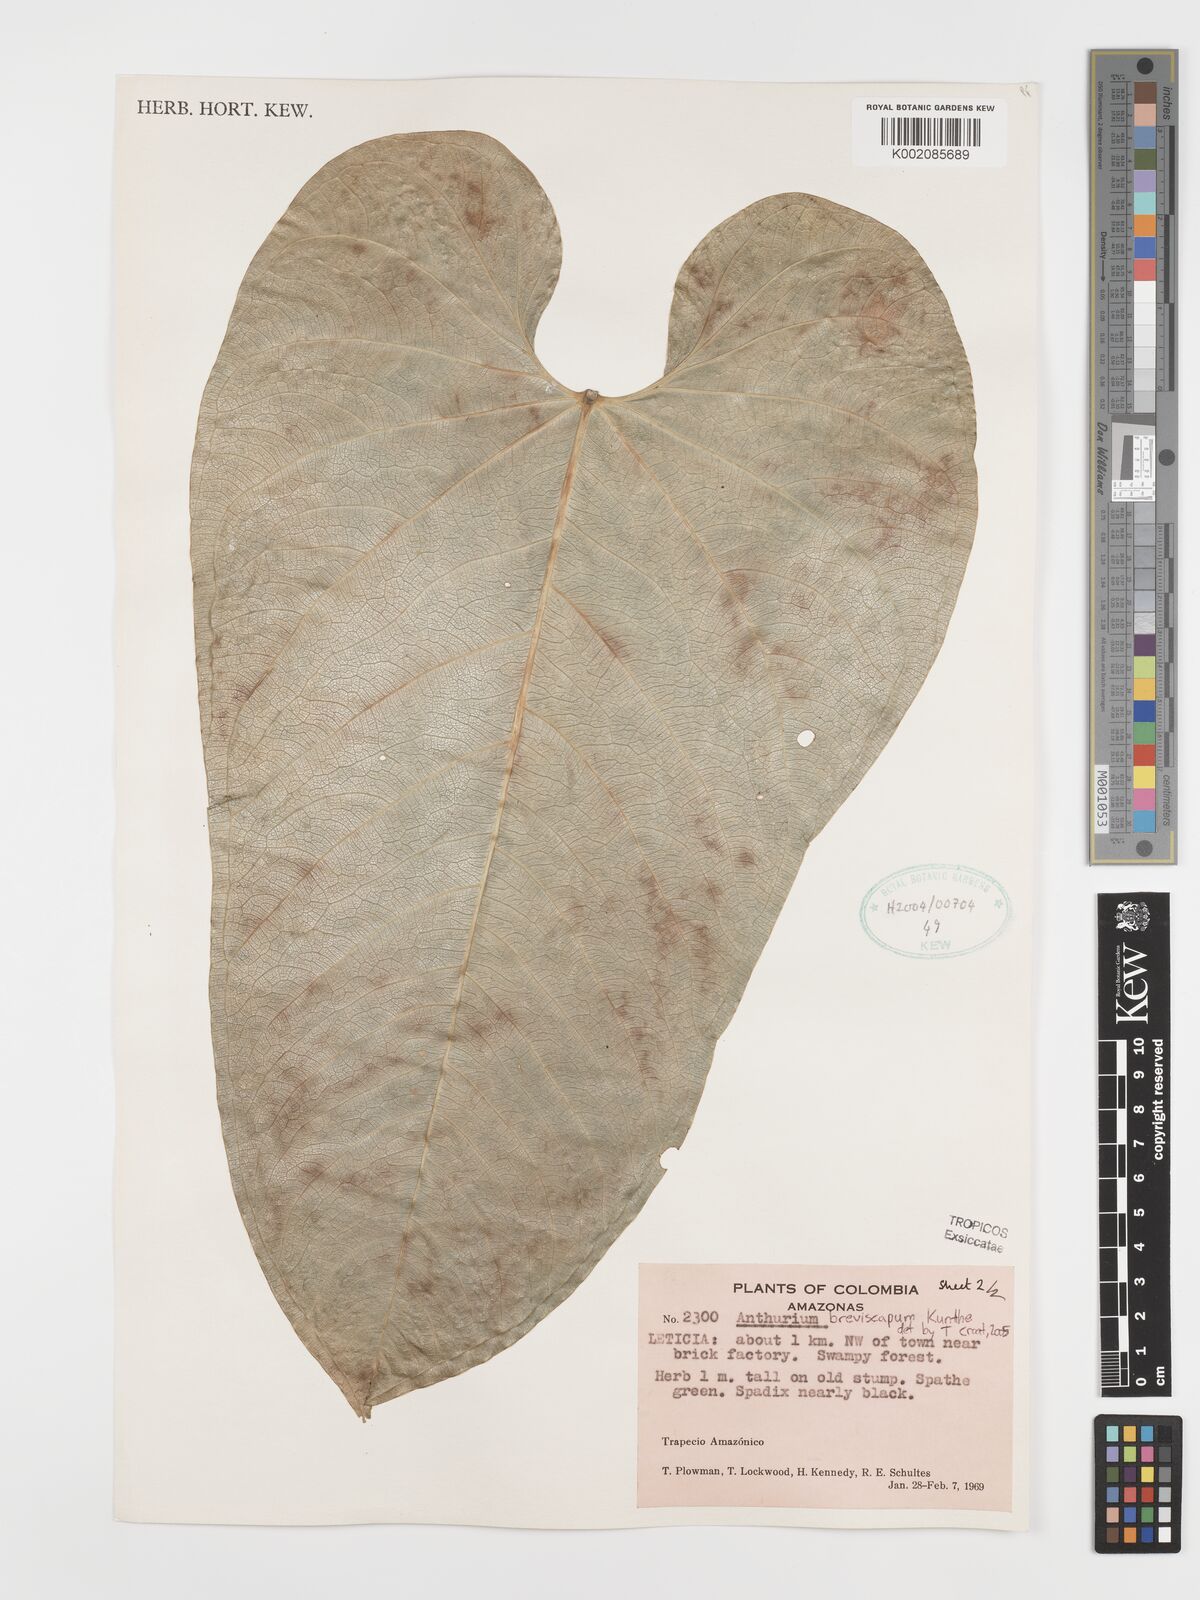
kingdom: Plantae
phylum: Tracheophyta
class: Liliopsida
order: Alismatales
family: Araceae
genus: Anthurium
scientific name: Anthurium breviscapum
